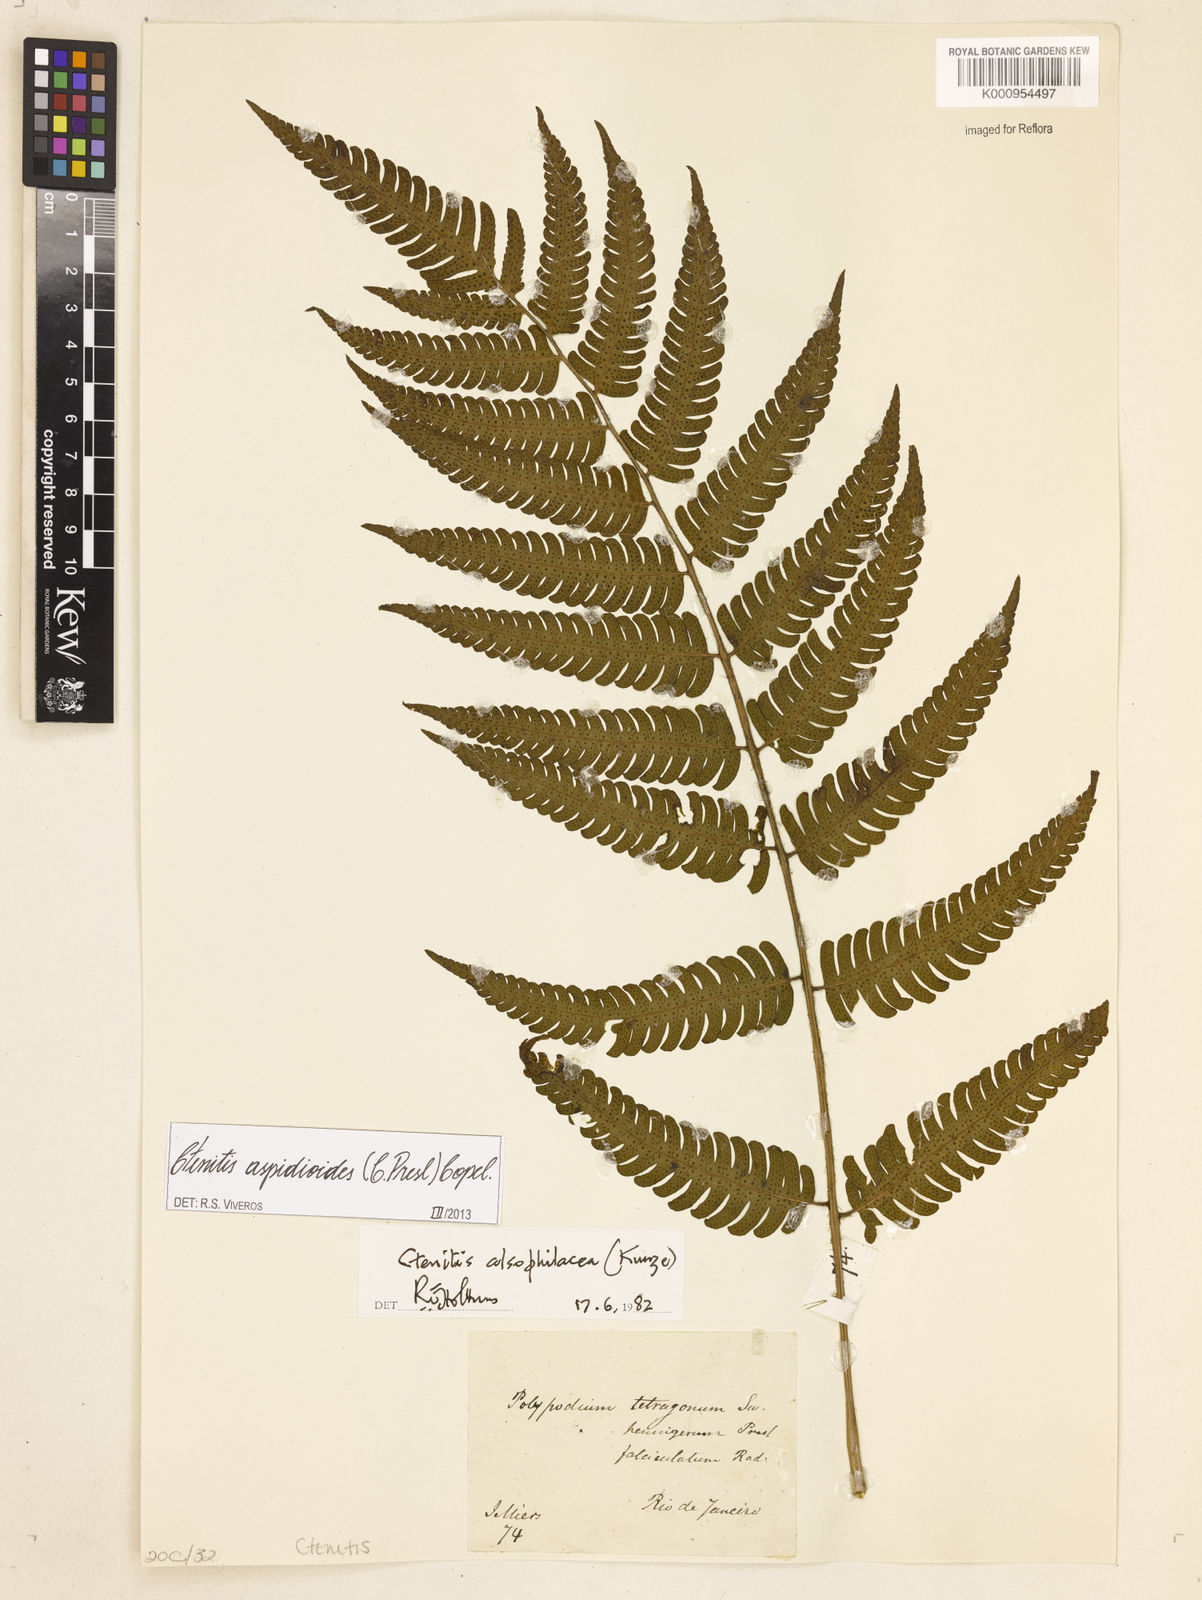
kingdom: Plantae
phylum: Tracheophyta
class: Polypodiopsida
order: Polypodiales
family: Dryopteridaceae
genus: Ctenitis
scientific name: Ctenitis aspidioides
